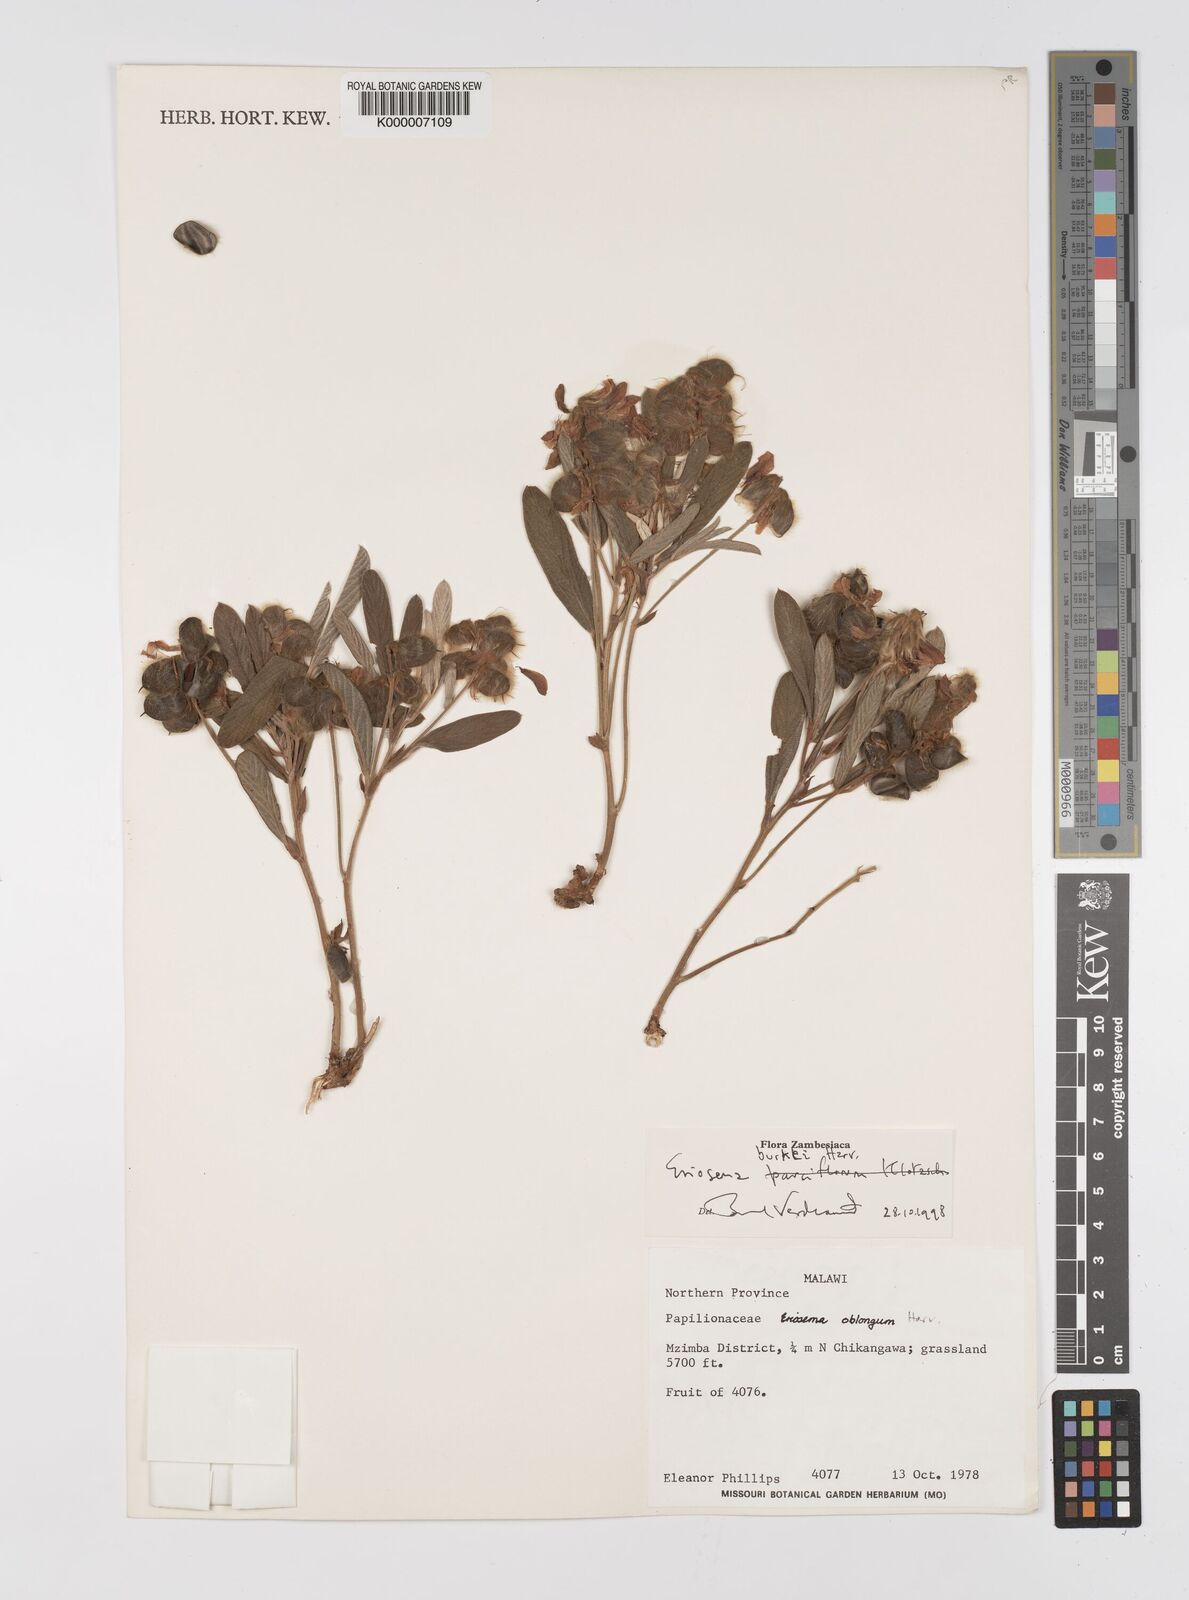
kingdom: Plantae
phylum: Tracheophyta
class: Magnoliopsida
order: Fabales
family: Fabaceae
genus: Eriosema
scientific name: Eriosema burkei
